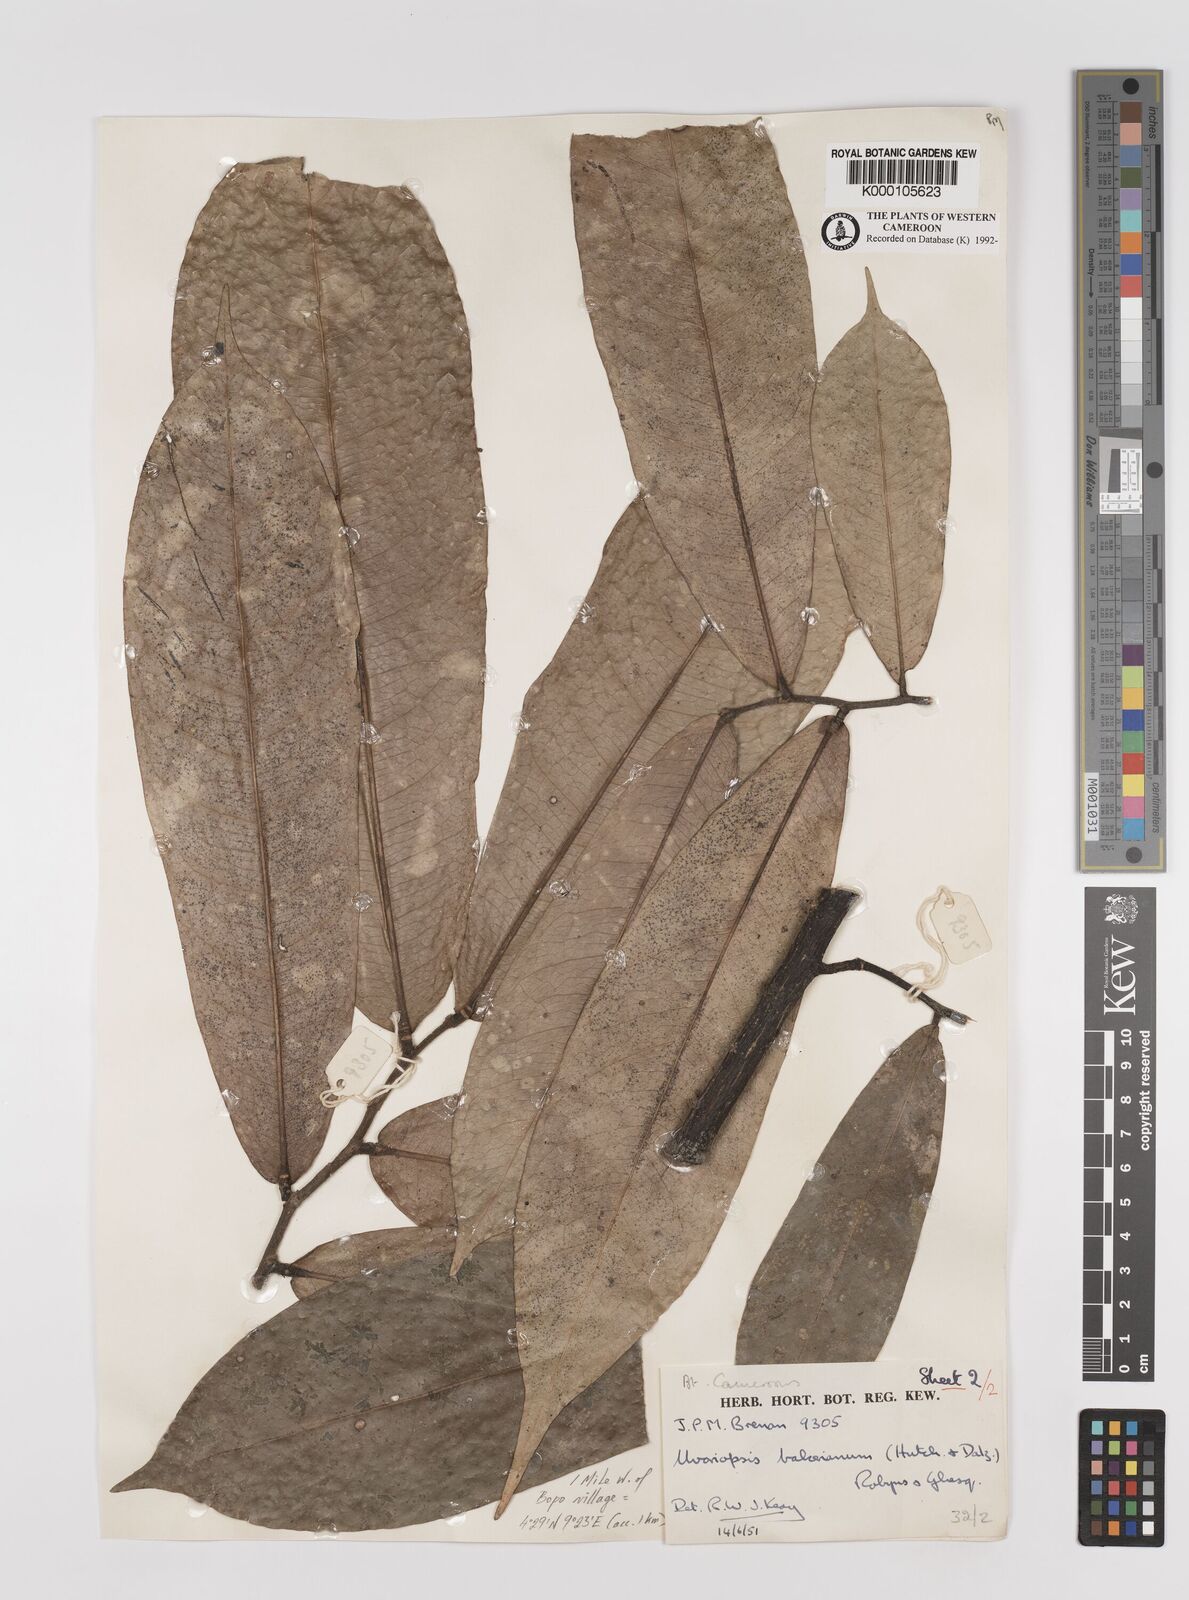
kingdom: Plantae
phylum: Tracheophyta
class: Magnoliopsida
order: Magnoliales
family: Annonaceae
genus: Uvariopsis
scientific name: Uvariopsis bakeriana
